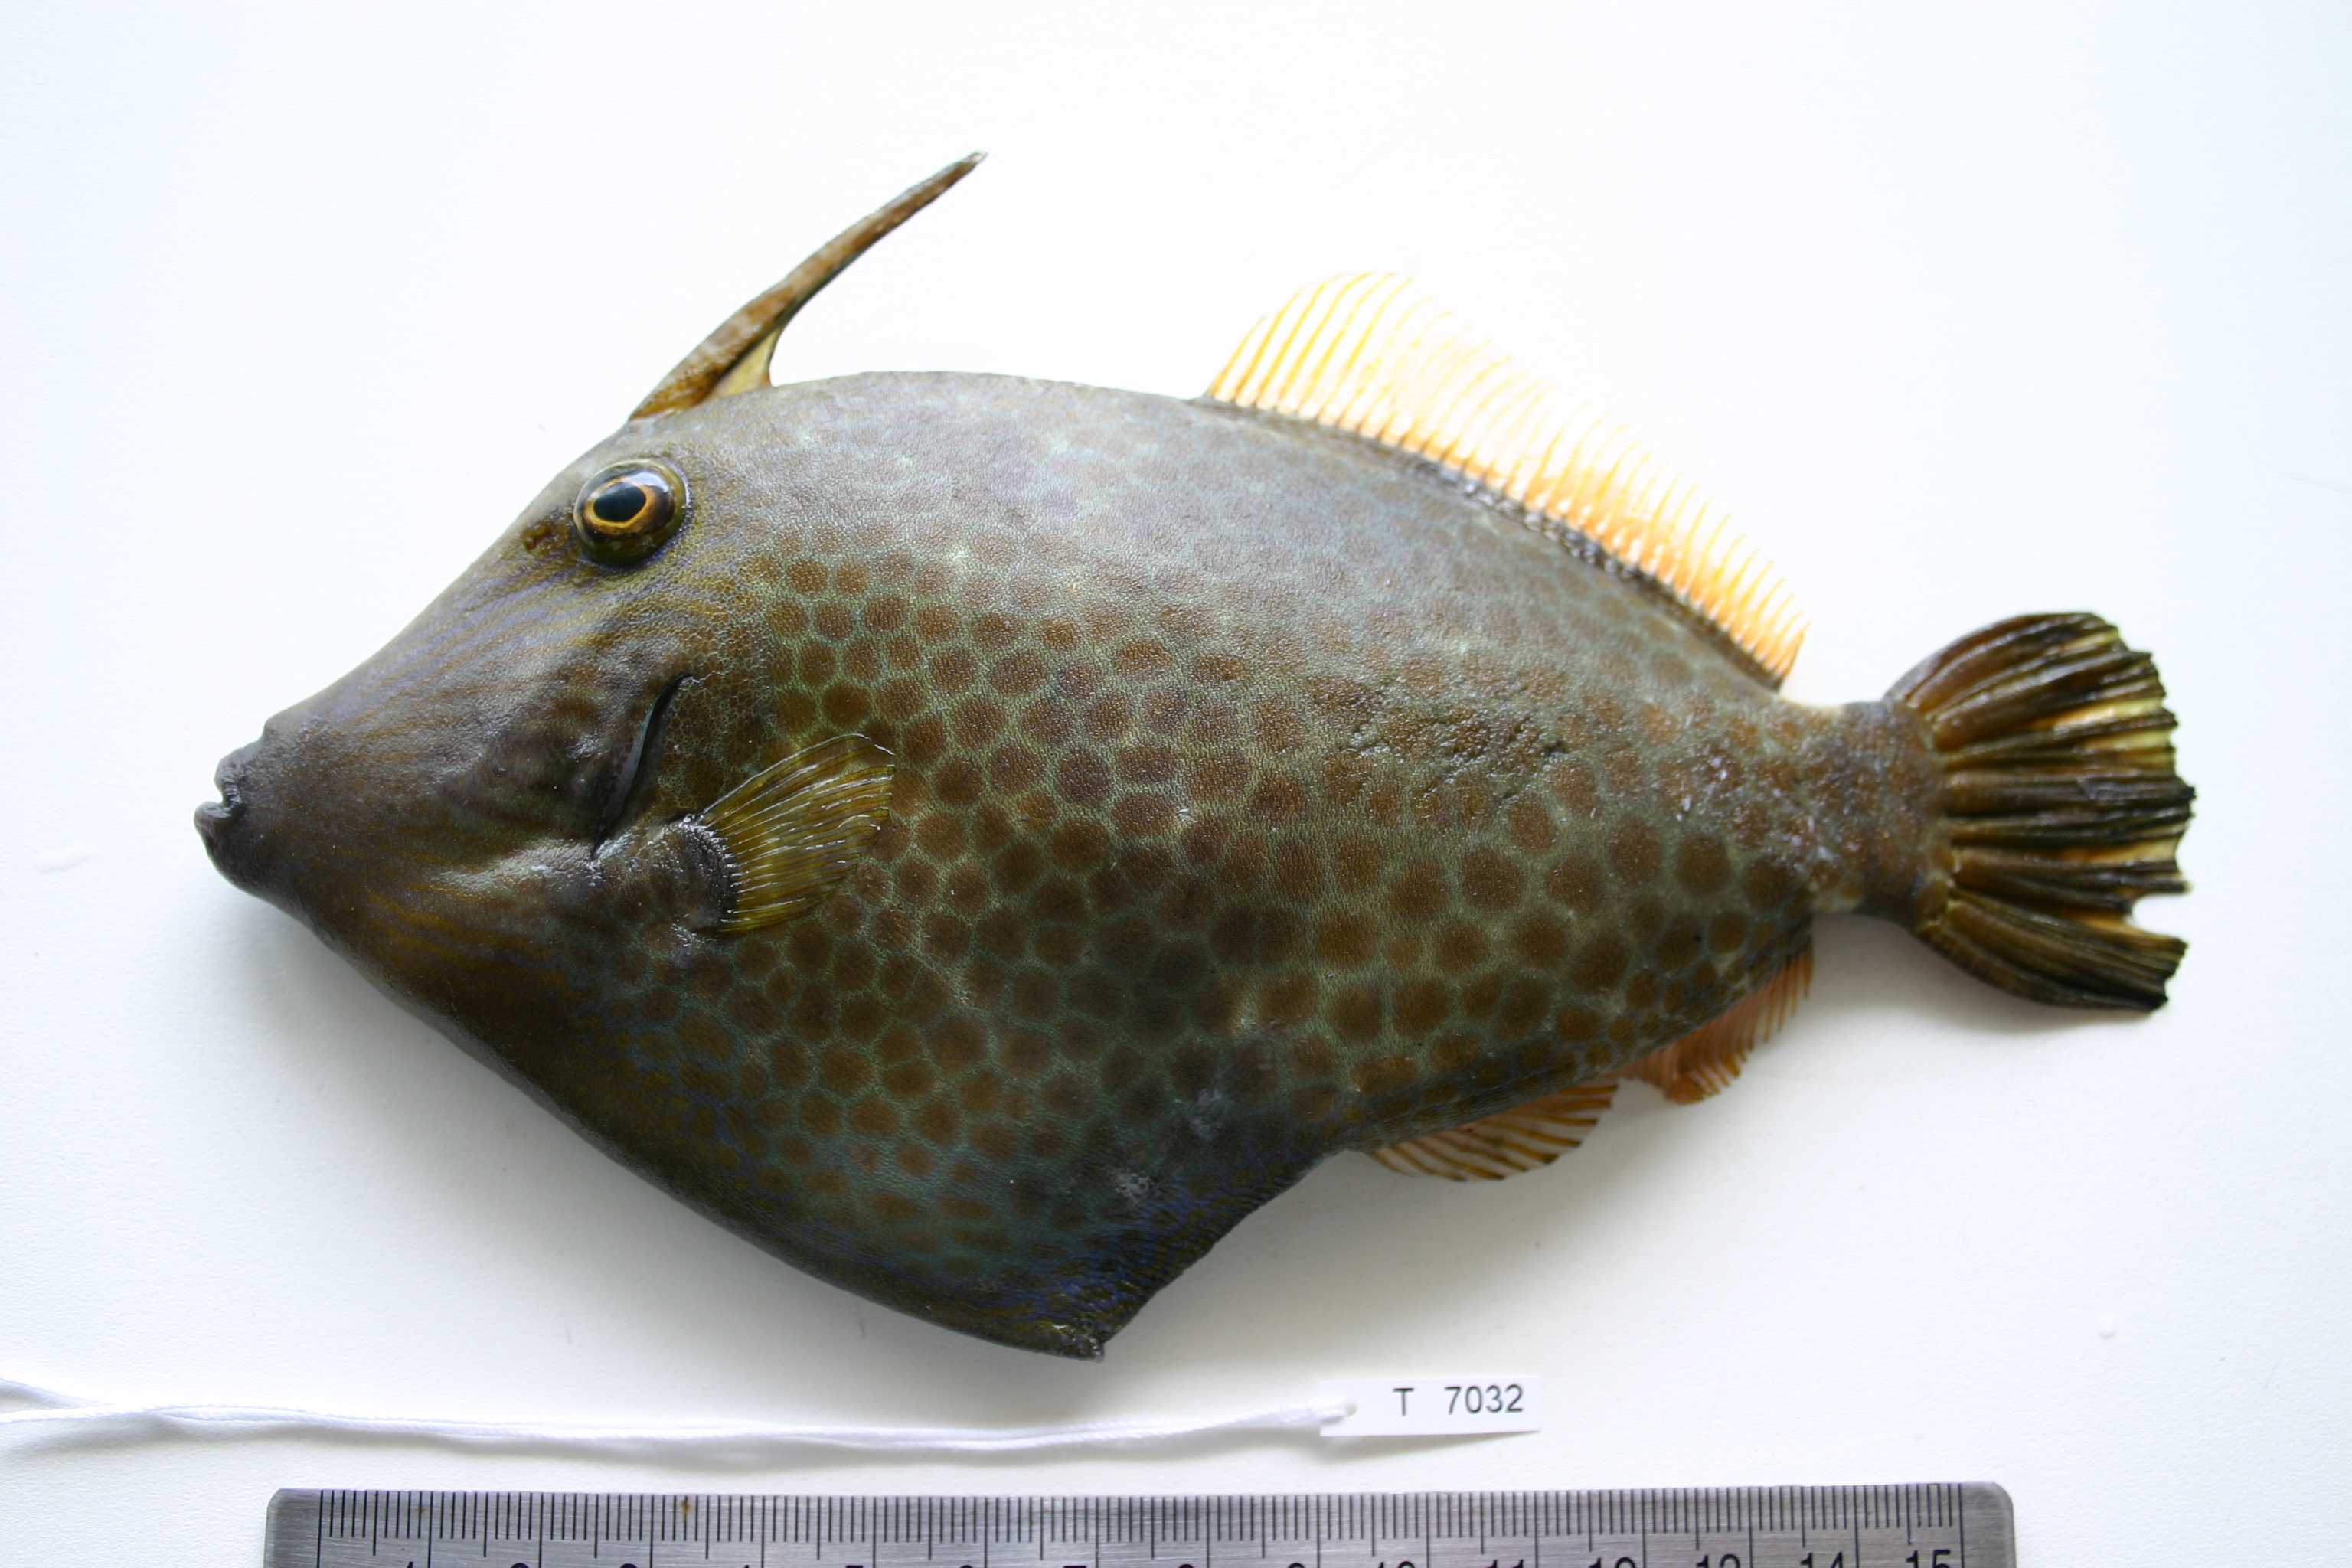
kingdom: Animalia
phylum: Chordata
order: Tetraodontiformes
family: Monacanthidae
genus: Cantherhines
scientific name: Cantherhines pardalis
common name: Honeycomb filefish
